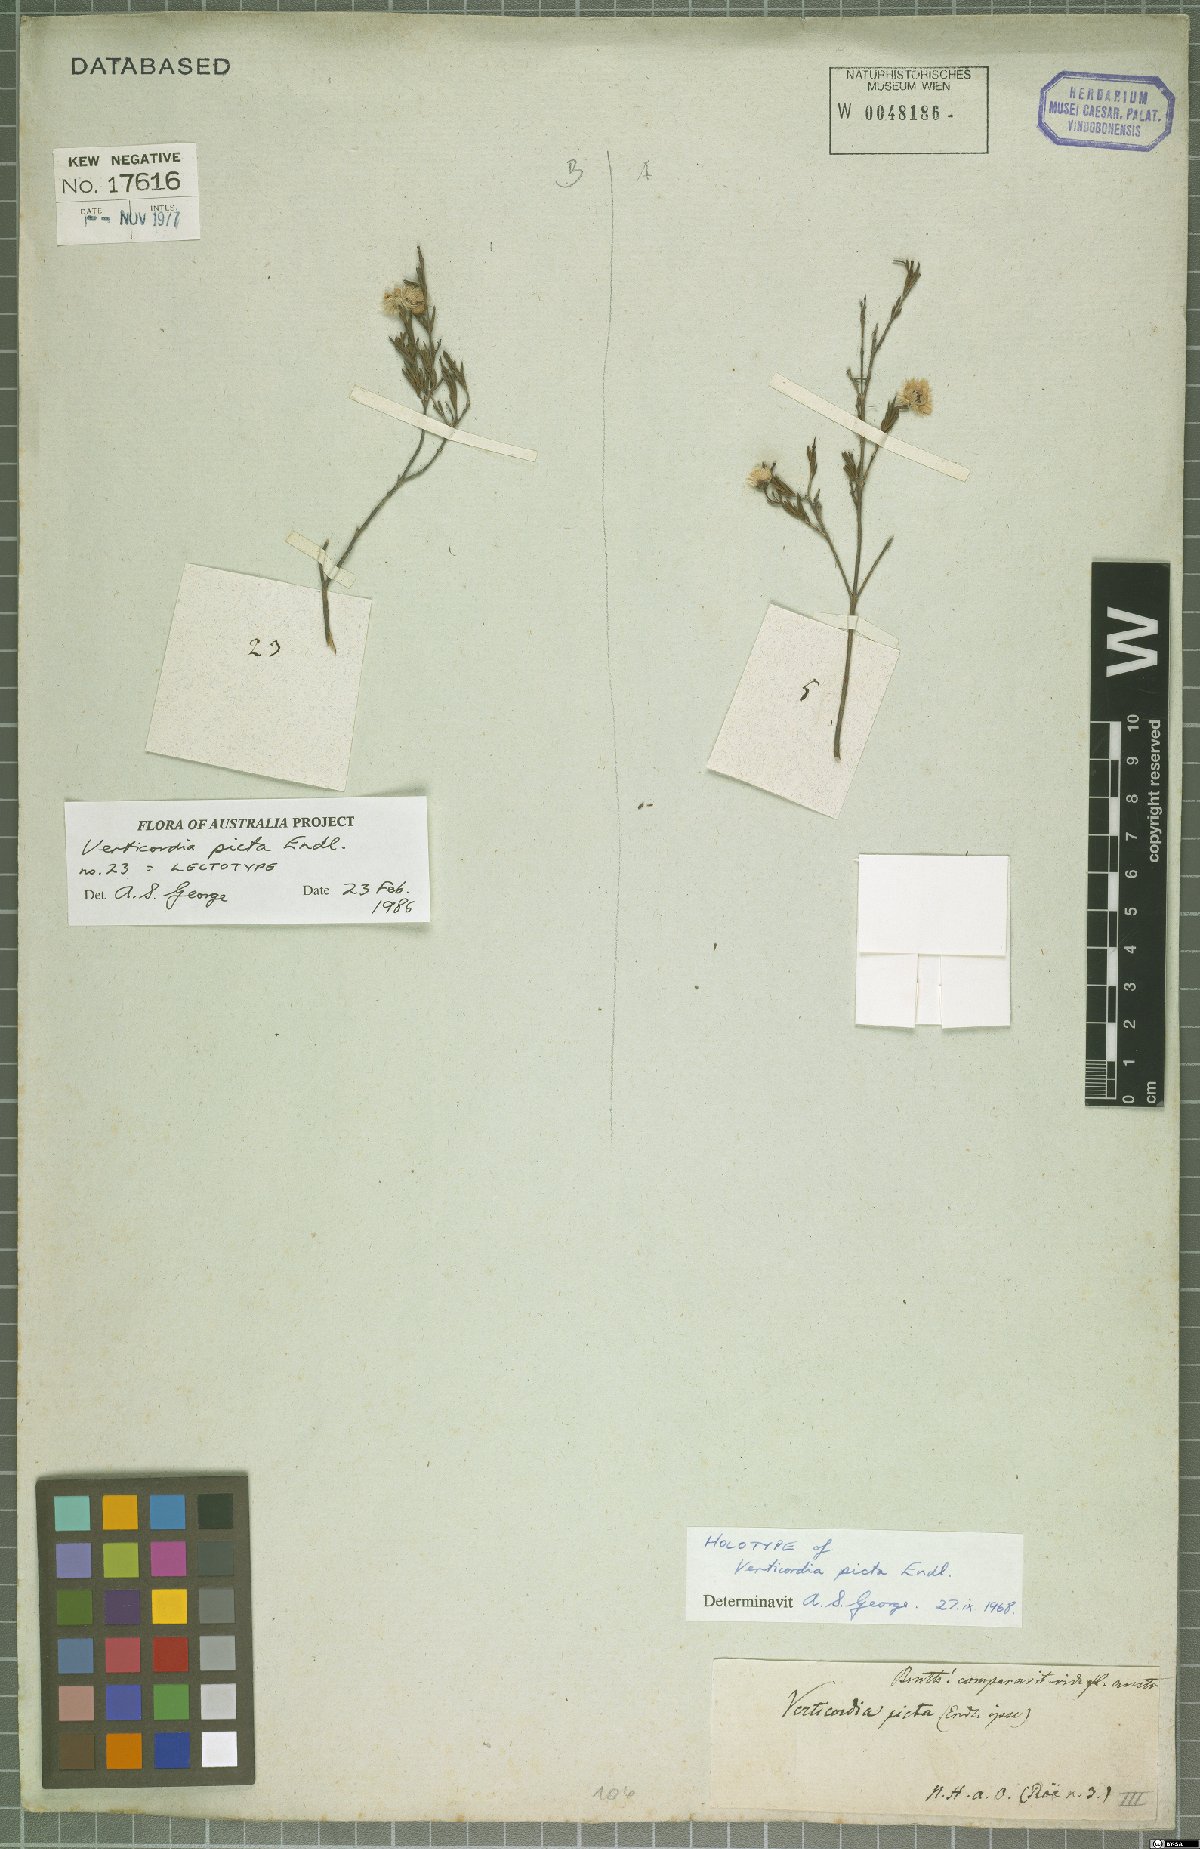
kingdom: Plantae
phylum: Tracheophyta
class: Magnoliopsida
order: Myrtales
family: Myrtaceae
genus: Verticordia
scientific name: Verticordia picta
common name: Painted feather-flower
